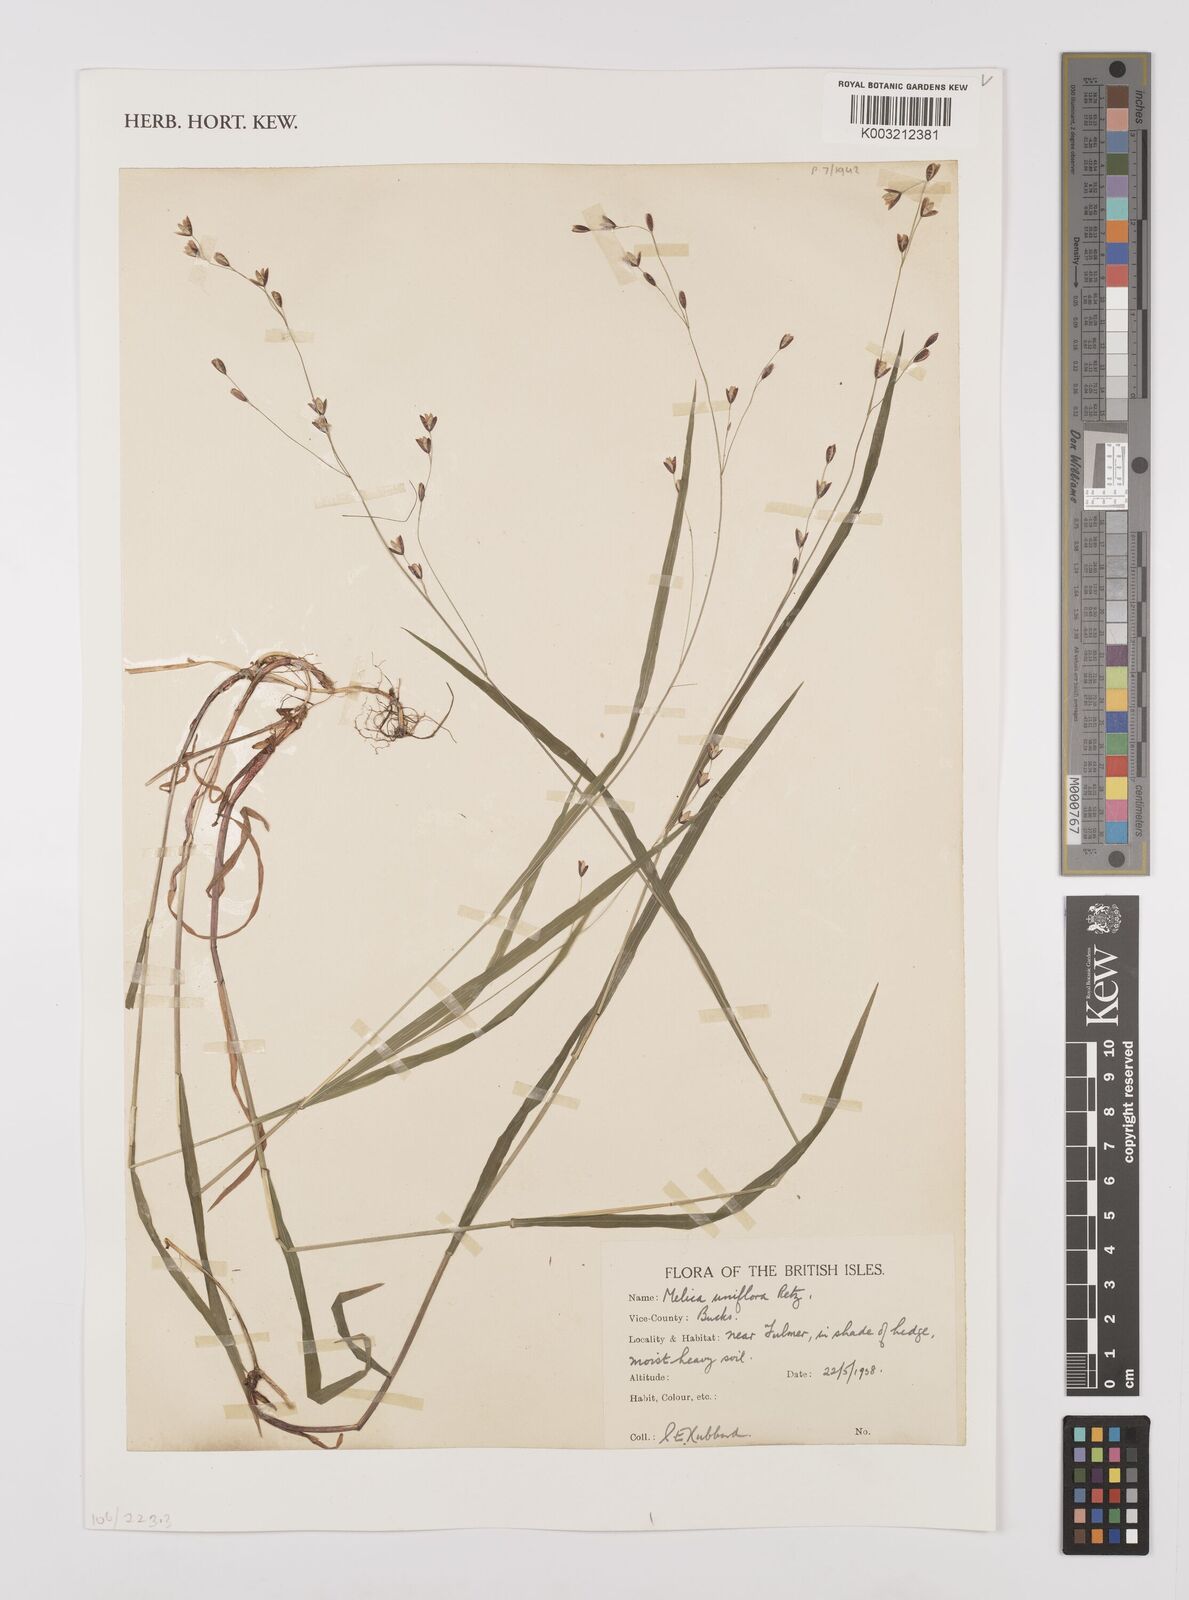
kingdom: Plantae
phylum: Tracheophyta
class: Liliopsida
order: Poales
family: Poaceae
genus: Melica
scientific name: Melica uniflora
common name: Wood melick
